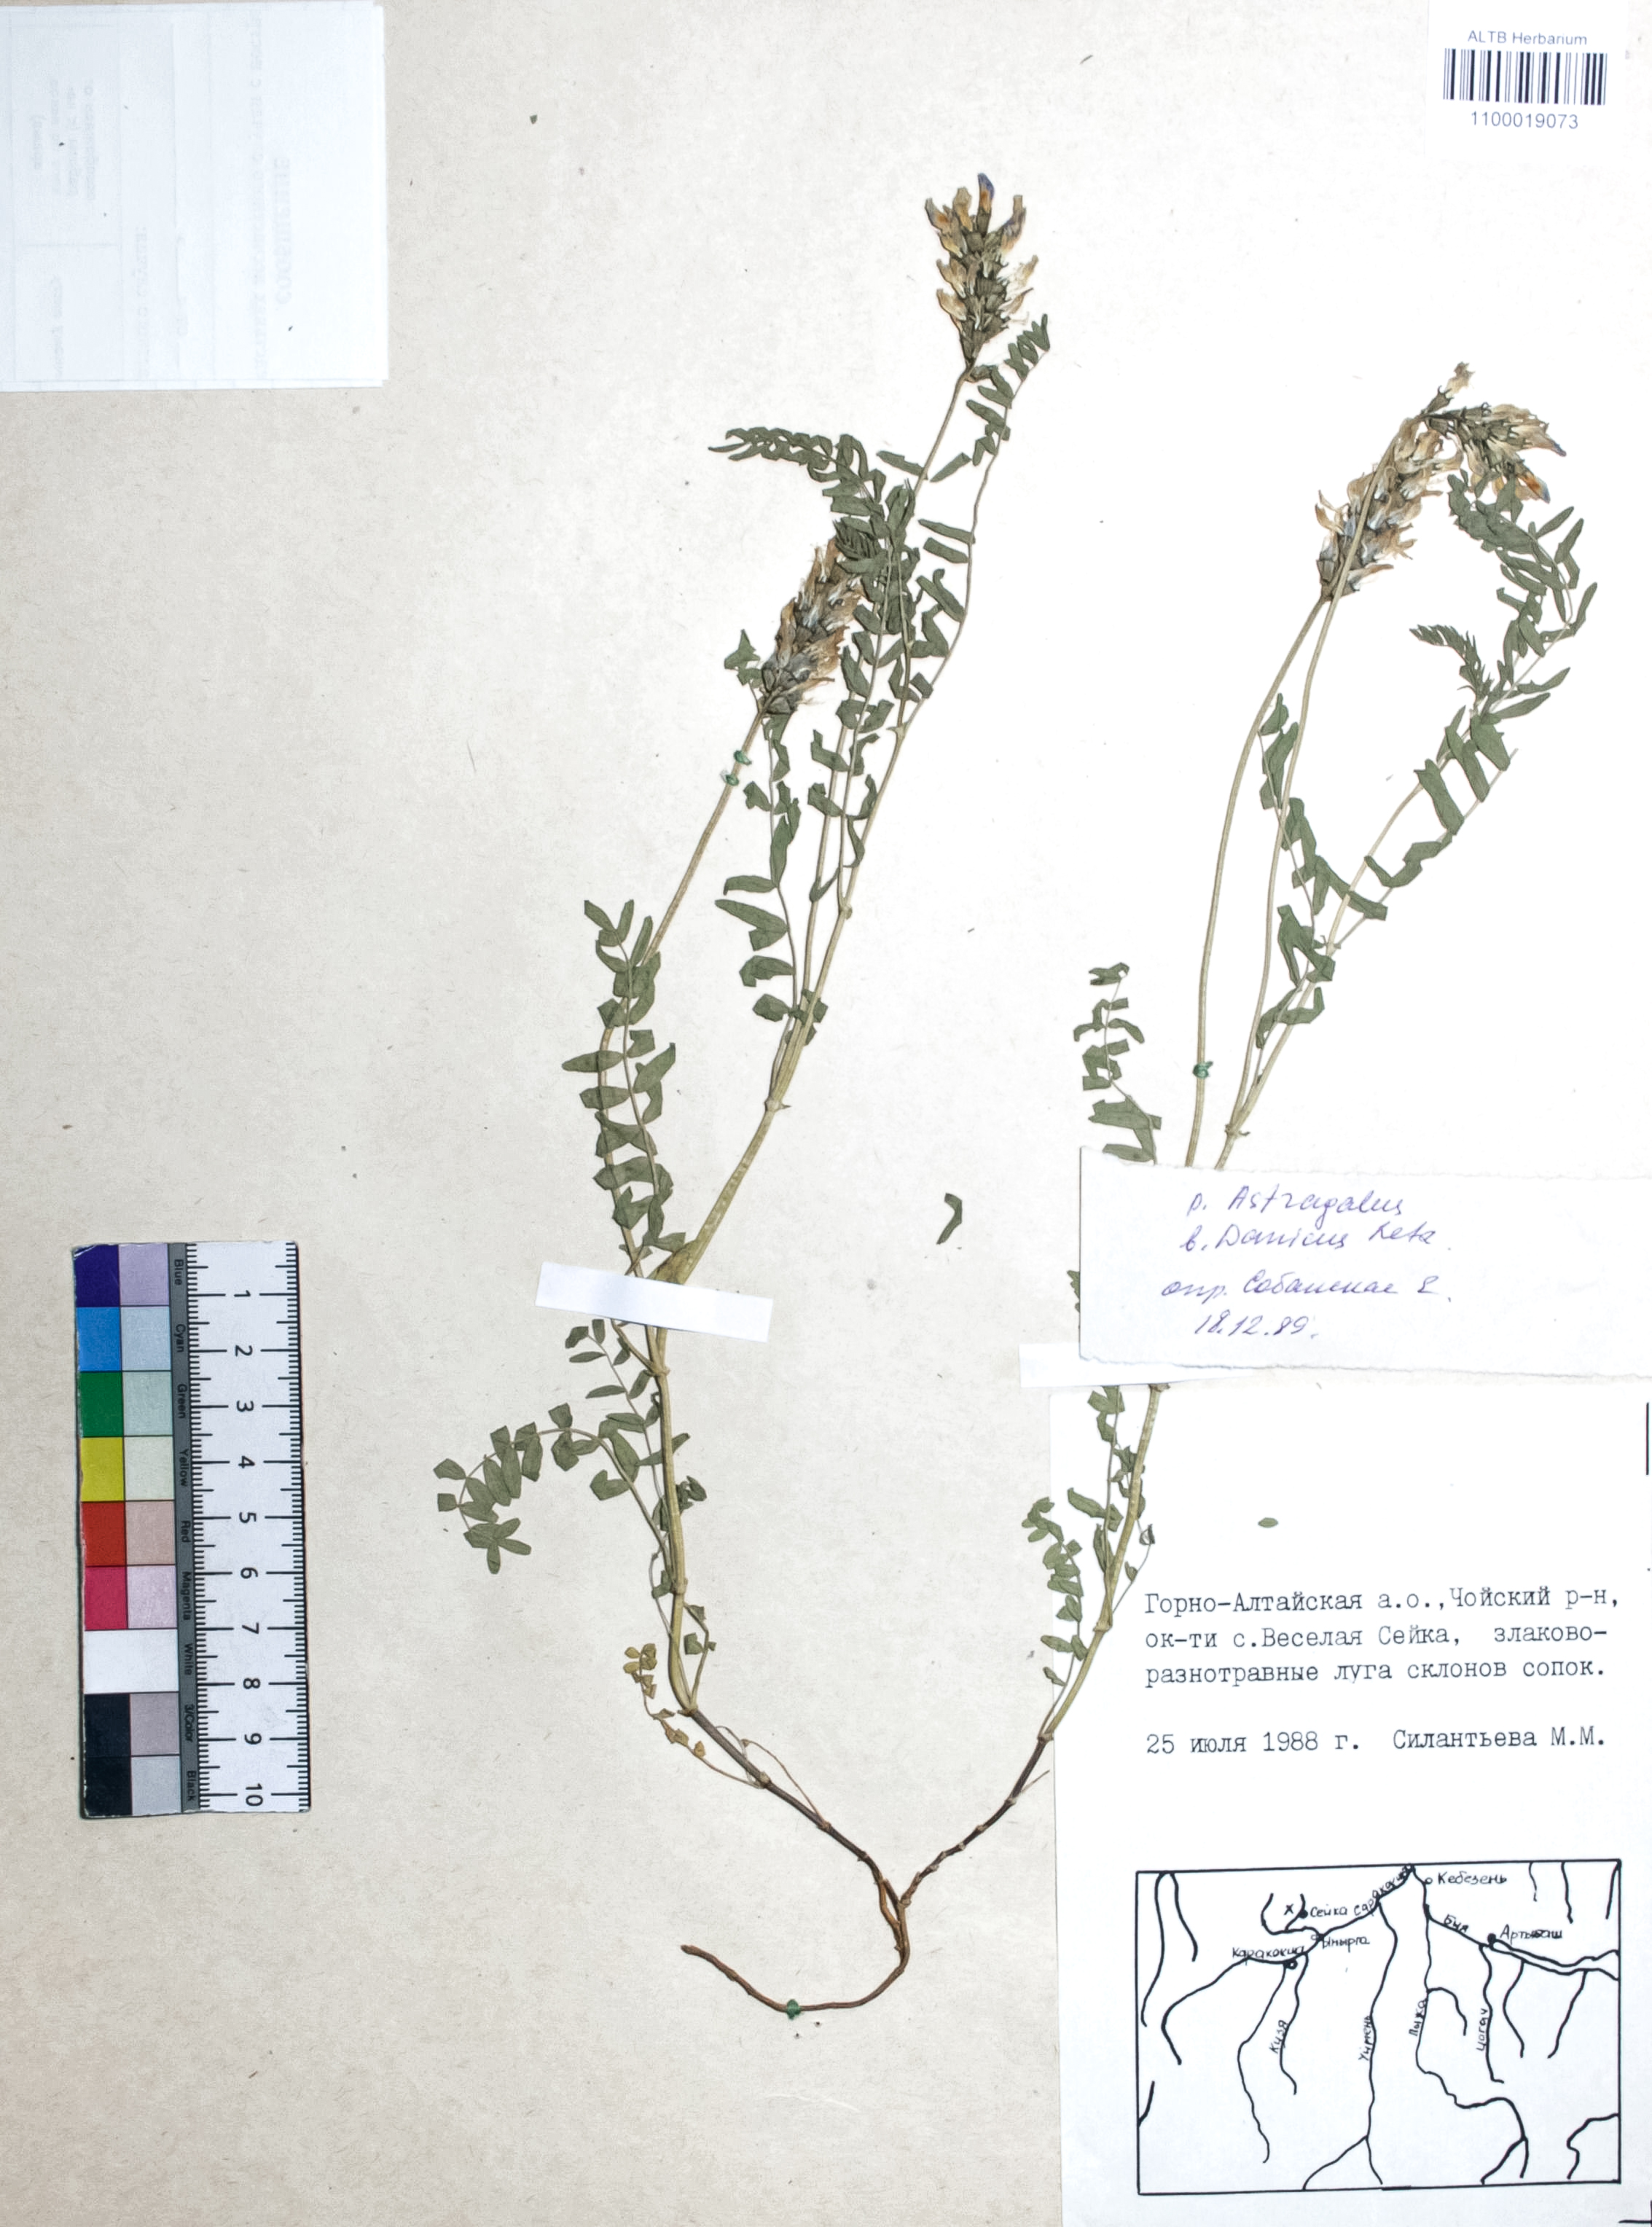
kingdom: Plantae
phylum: Tracheophyta
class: Magnoliopsida
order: Fabales
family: Fabaceae
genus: Astragalus
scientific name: Astragalus danicus
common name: Purple milk-vetch
